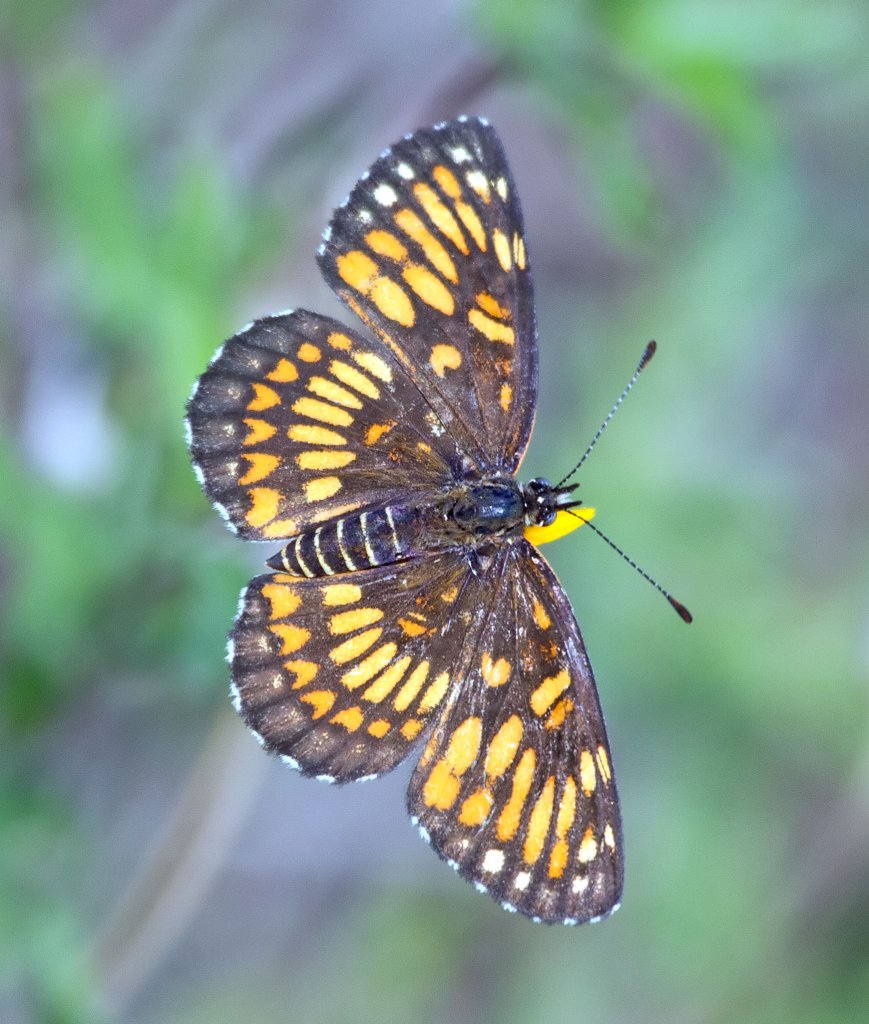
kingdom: Animalia
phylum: Arthropoda
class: Insecta
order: Lepidoptera
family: Nymphalidae
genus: Thessalia
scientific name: Thessalia theona
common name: Theona Checkerspot
